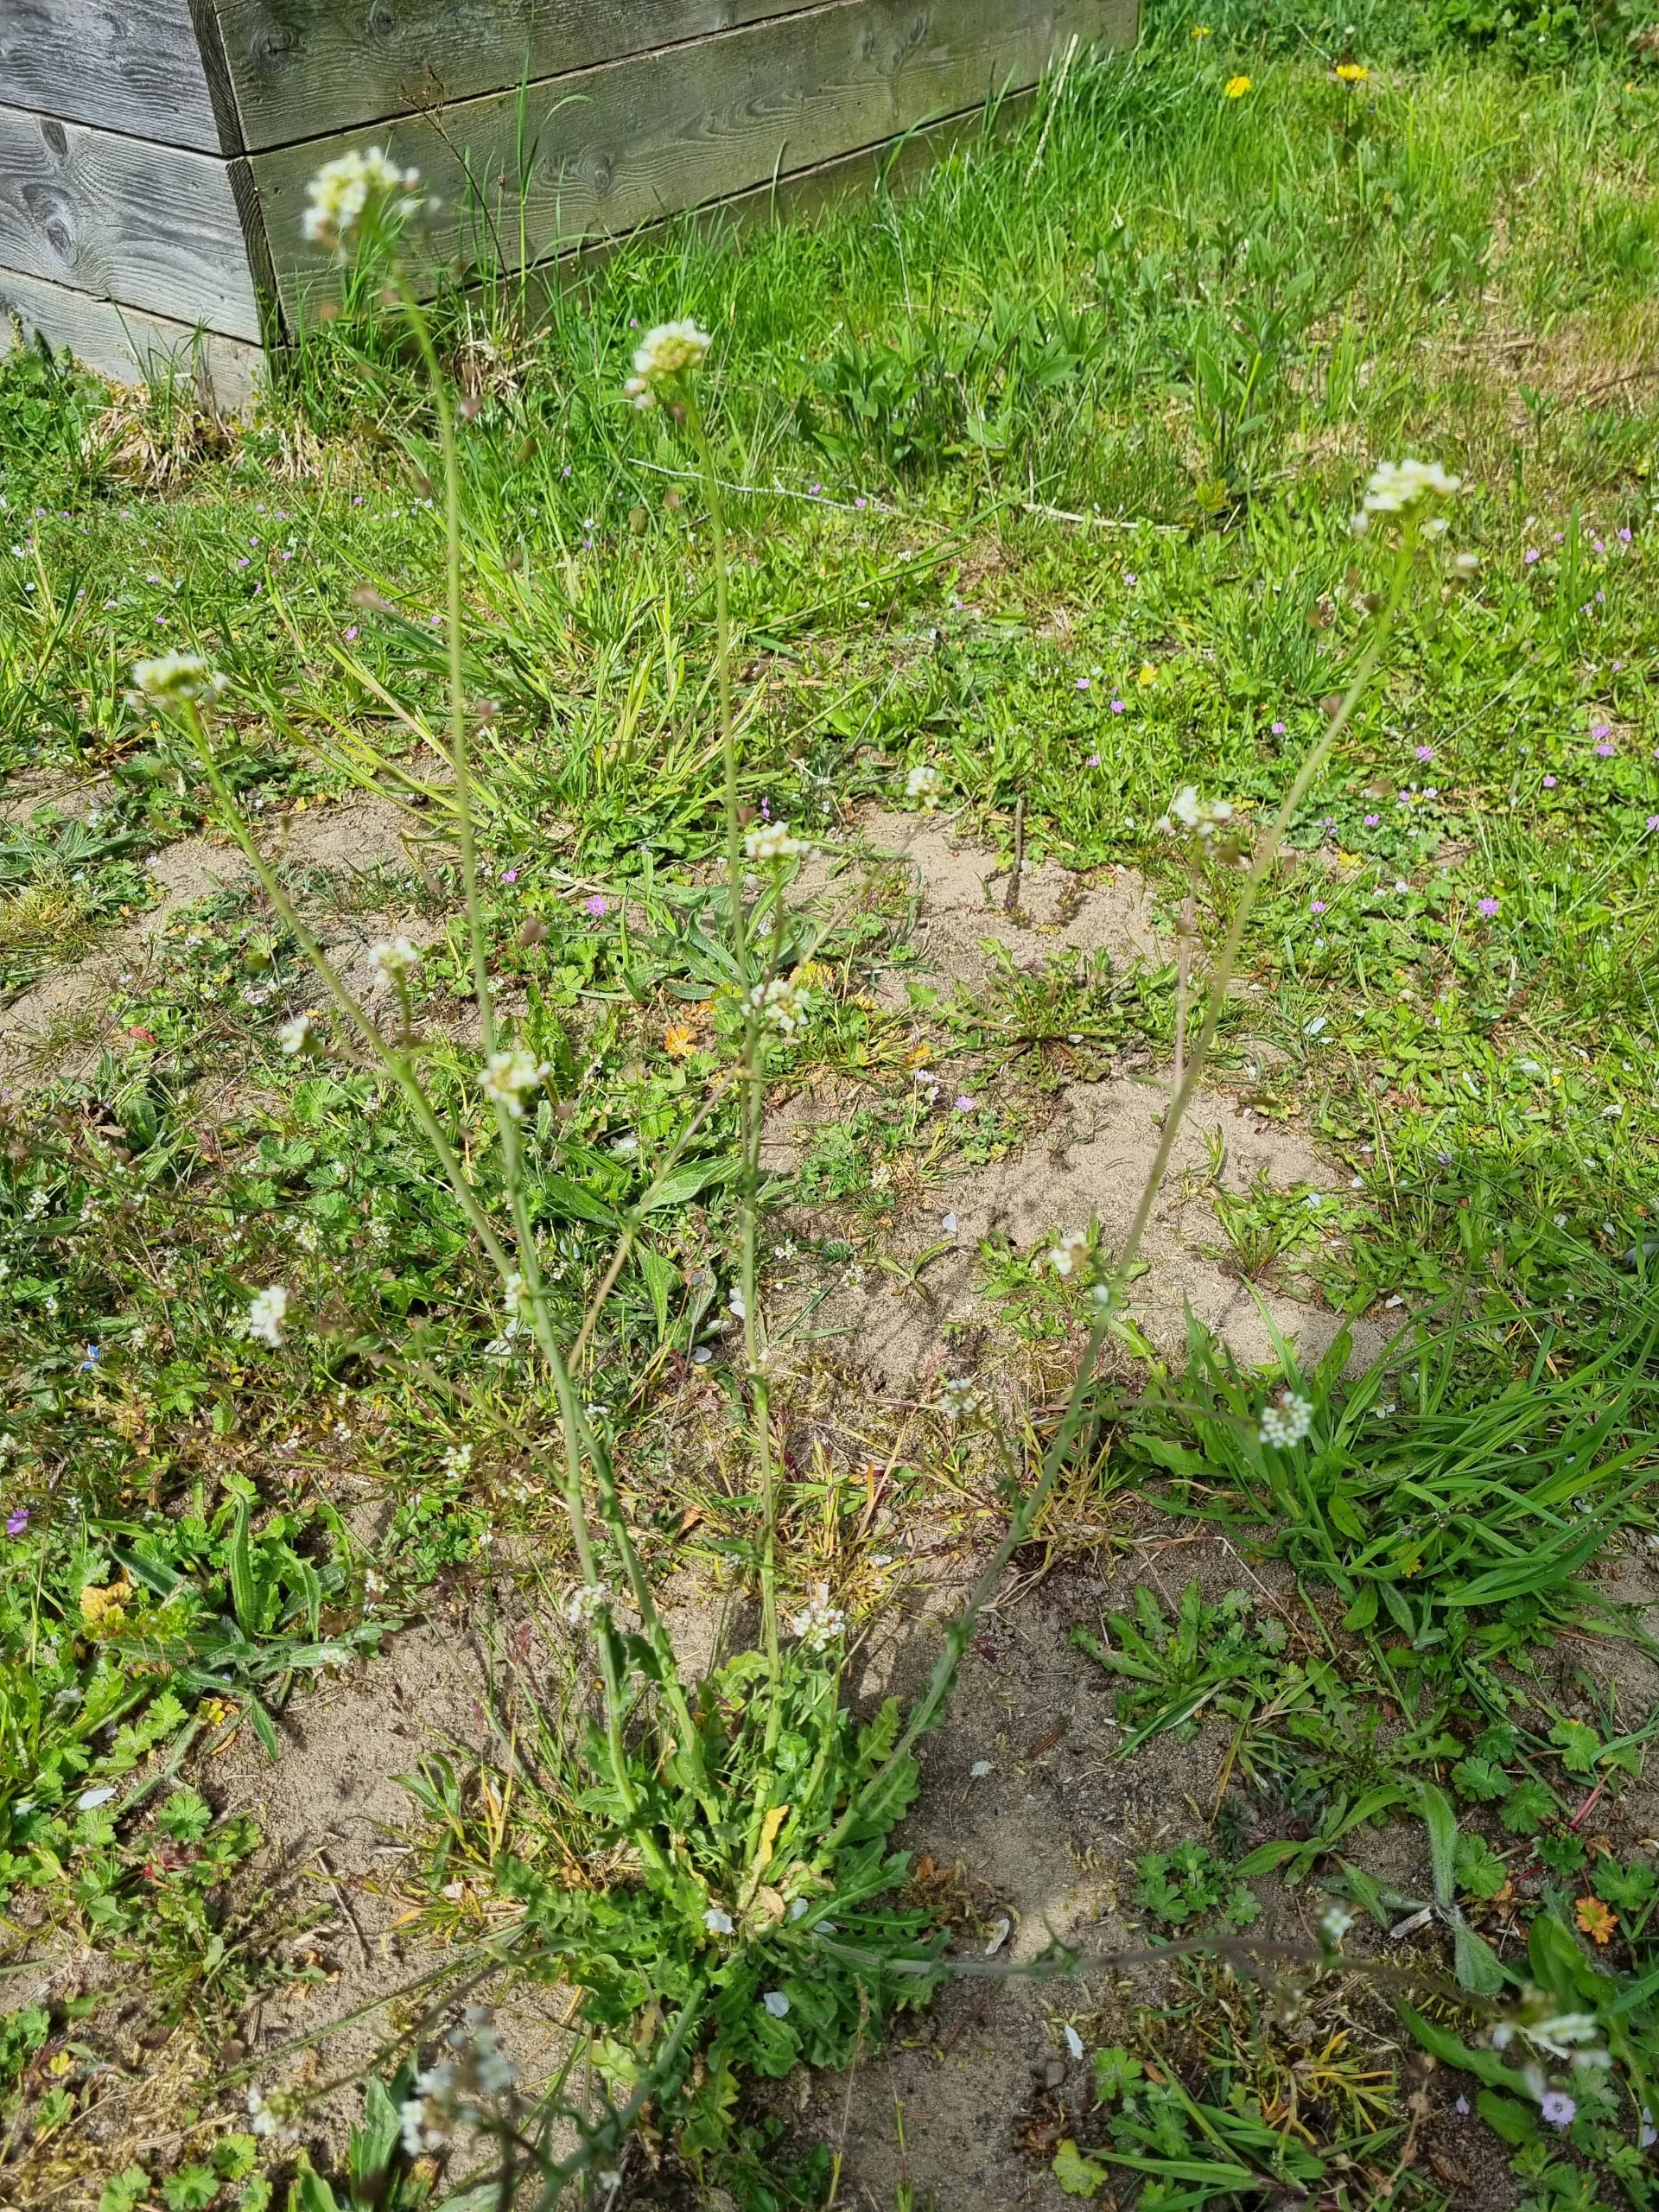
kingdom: Plantae
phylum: Tracheophyta
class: Magnoliopsida
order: Brassicales
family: Brassicaceae
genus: Capsella
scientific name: Capsella bursa-pastoris
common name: Hyrdetaske
